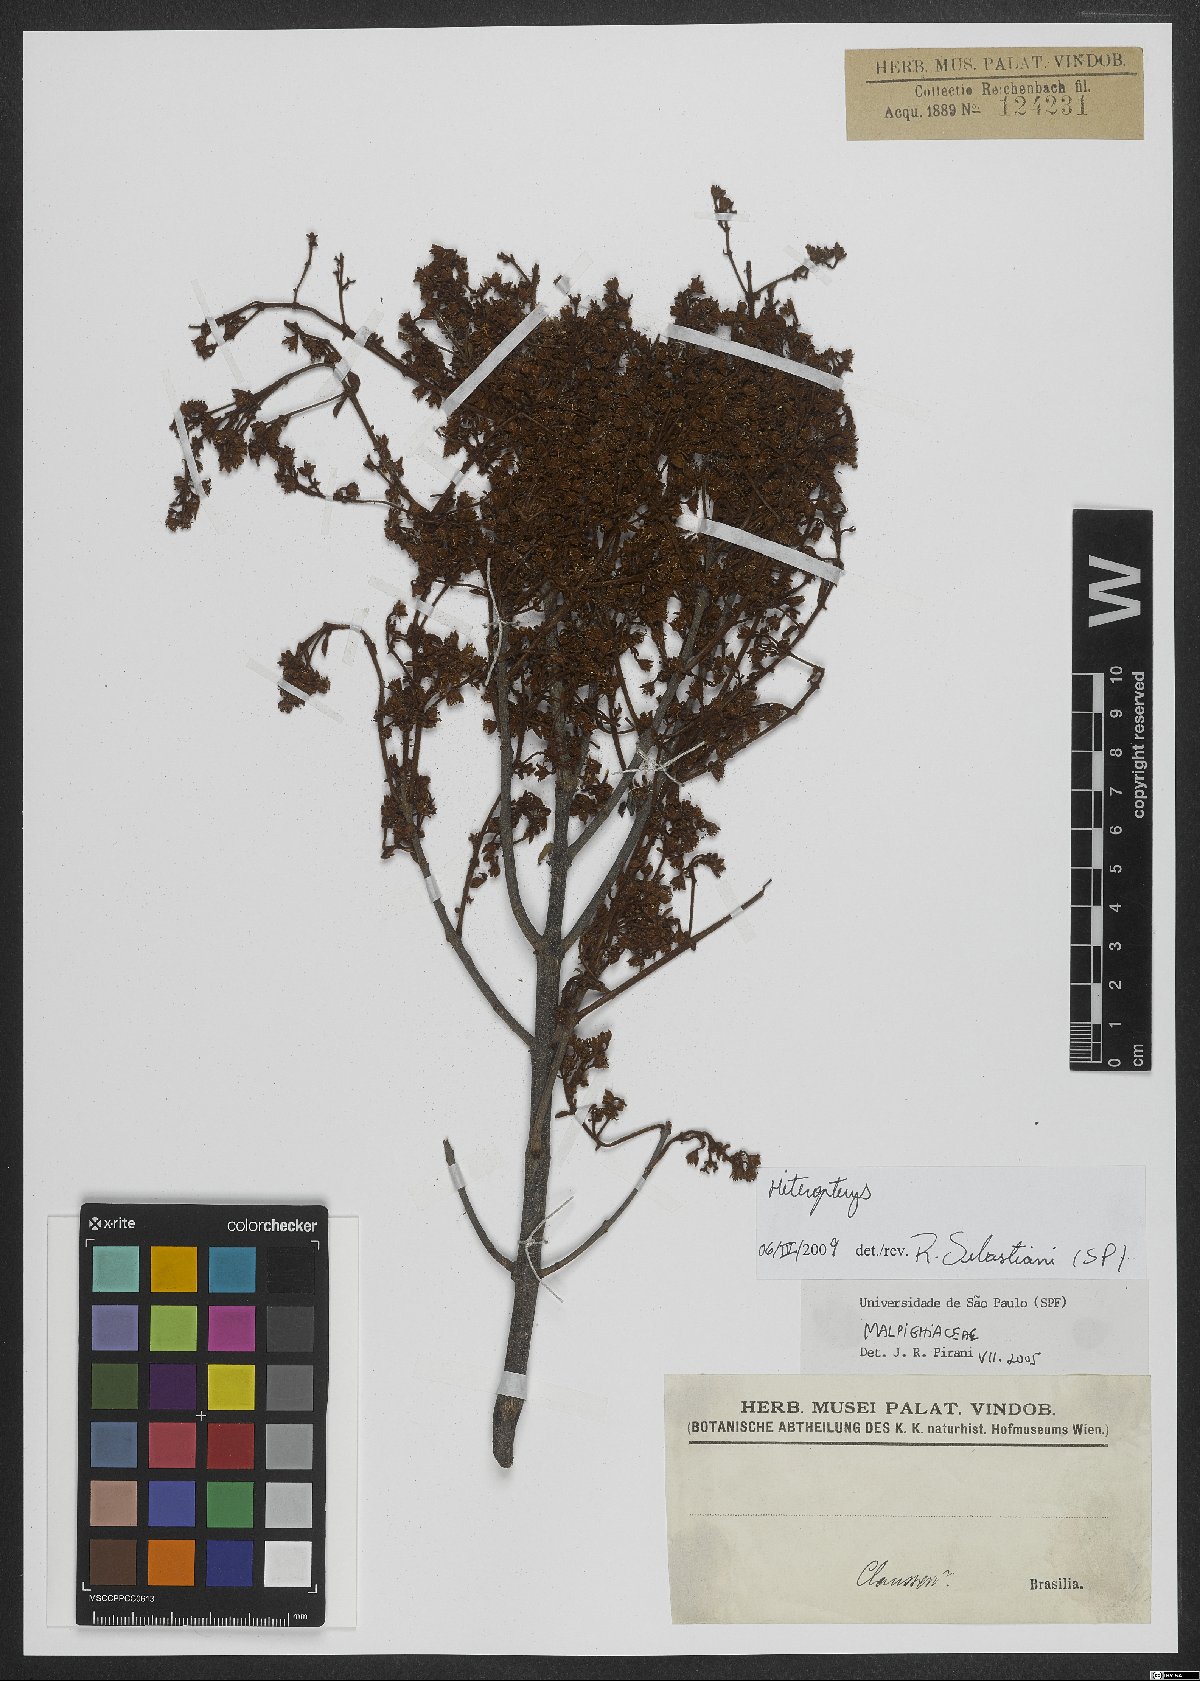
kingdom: Plantae
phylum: Tracheophyta
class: Magnoliopsida
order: Malpighiales
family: Malpighiaceae
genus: Heteropterys
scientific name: Heteropterys
